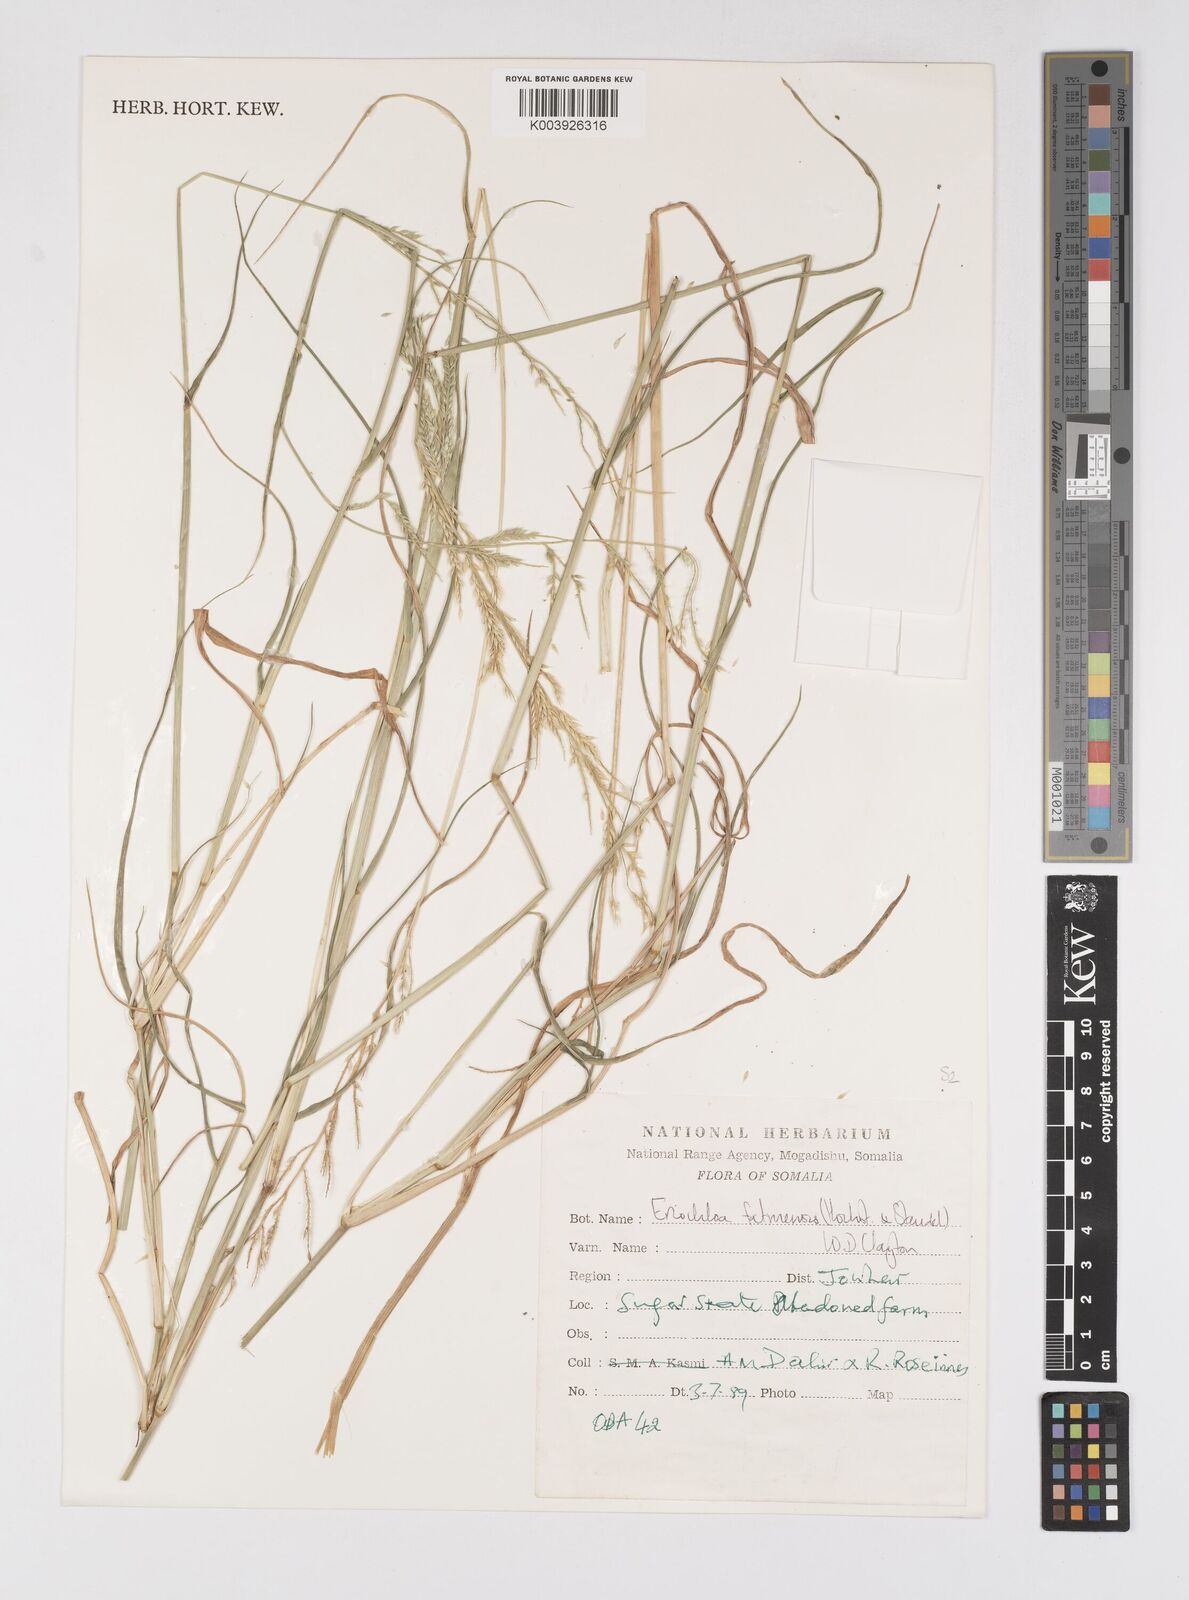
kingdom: Plantae
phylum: Tracheophyta
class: Liliopsida
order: Poales
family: Poaceae
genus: Eriochloa
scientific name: Eriochloa barbatus
